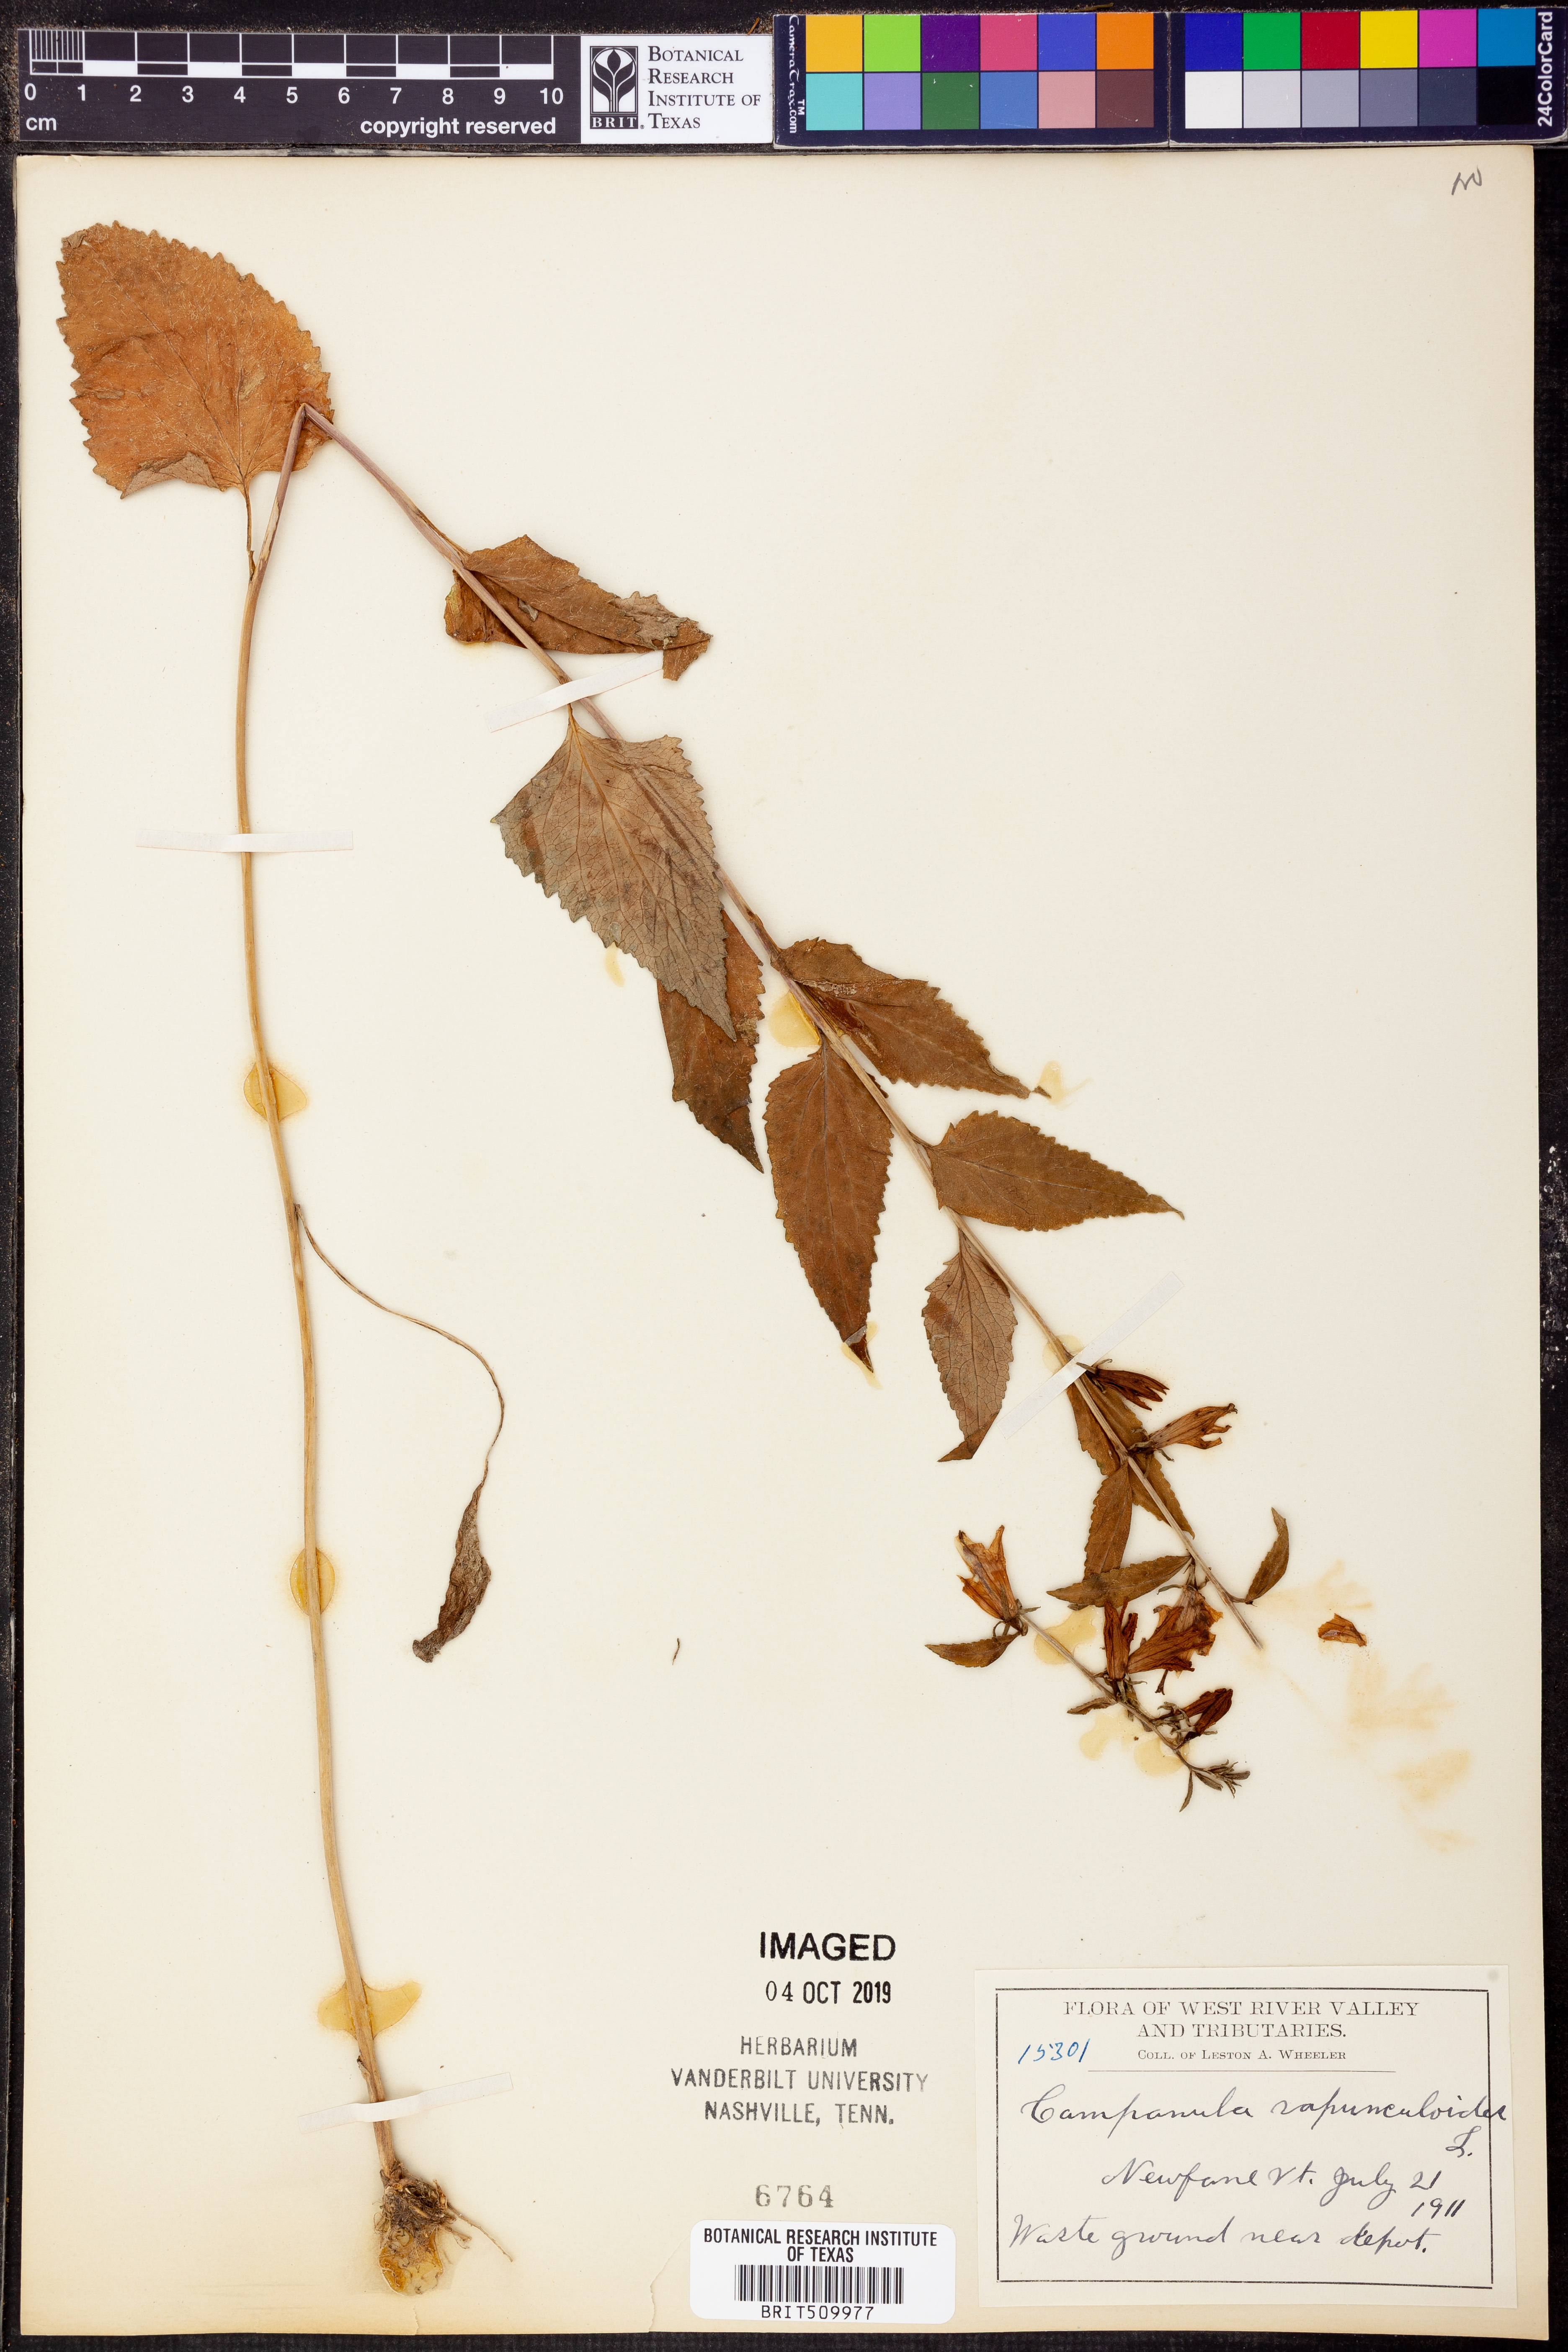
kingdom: Plantae
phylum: Tracheophyta
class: Magnoliopsida
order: Asterales
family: Campanulaceae
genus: Campanula
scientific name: Campanula rapunculoides
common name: Creeping bellflower
